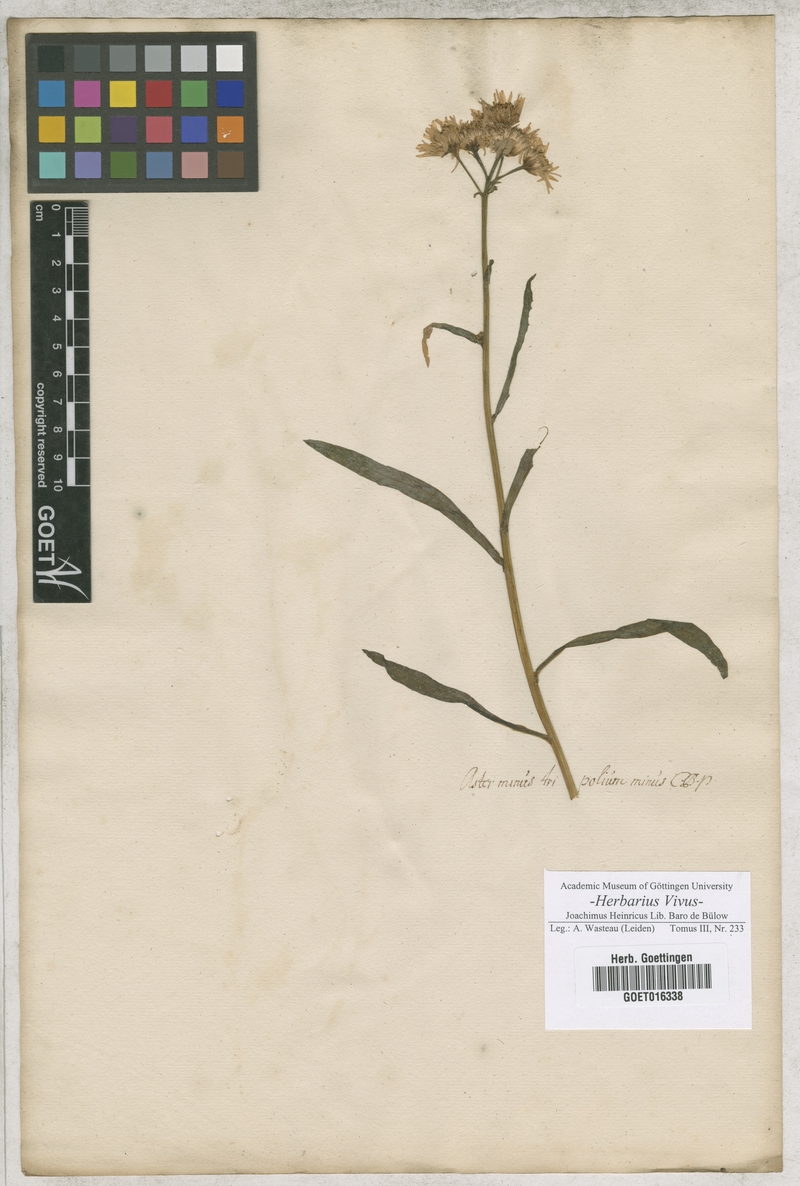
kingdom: Plantae
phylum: Tracheophyta
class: Magnoliopsida
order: Asterales
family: Asteraceae
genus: Aster
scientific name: Aster
